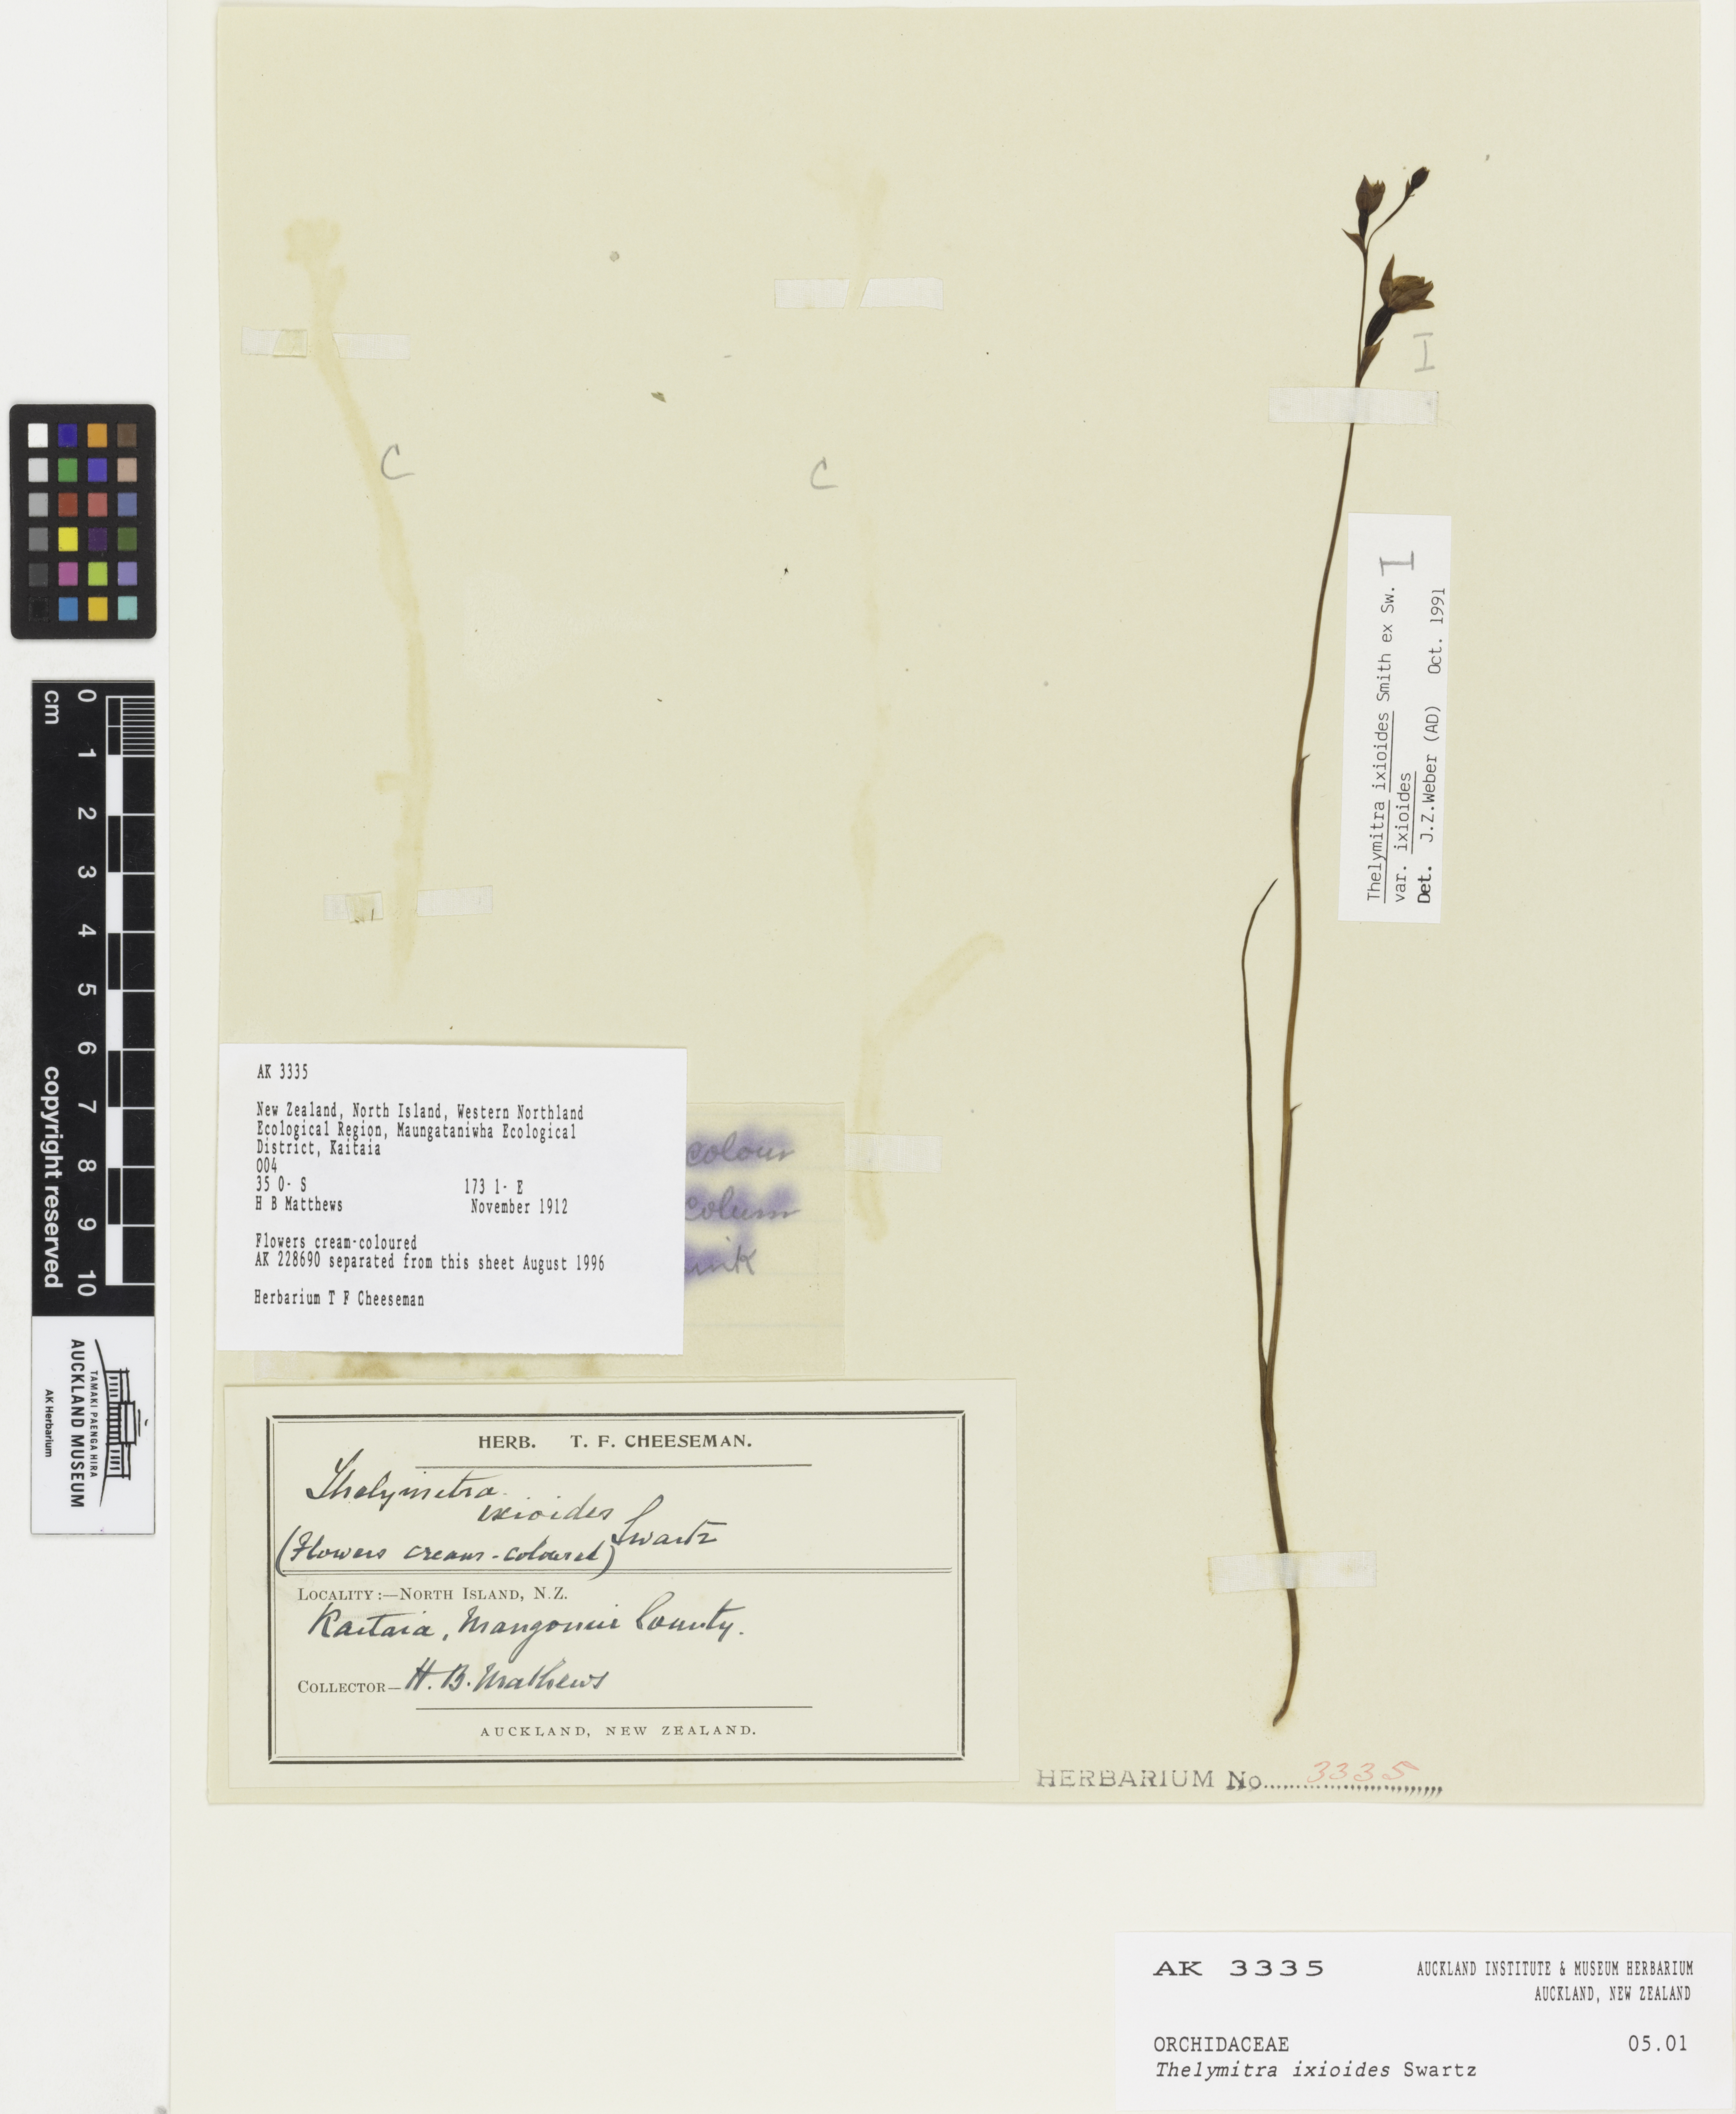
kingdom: Plantae
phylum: Tracheophyta
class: Liliopsida
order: Asparagales
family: Orchidaceae
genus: Thelymitra
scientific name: Thelymitra ixioides
